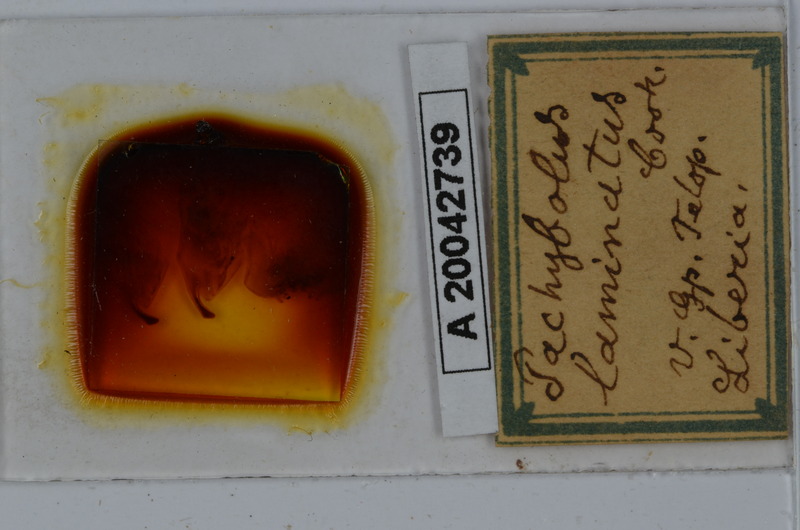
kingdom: Animalia
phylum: Arthropoda
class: Diplopoda
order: Spirobolida
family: Pachybolidae
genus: Pelmatojulus
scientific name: Pelmatojulus laminatus
